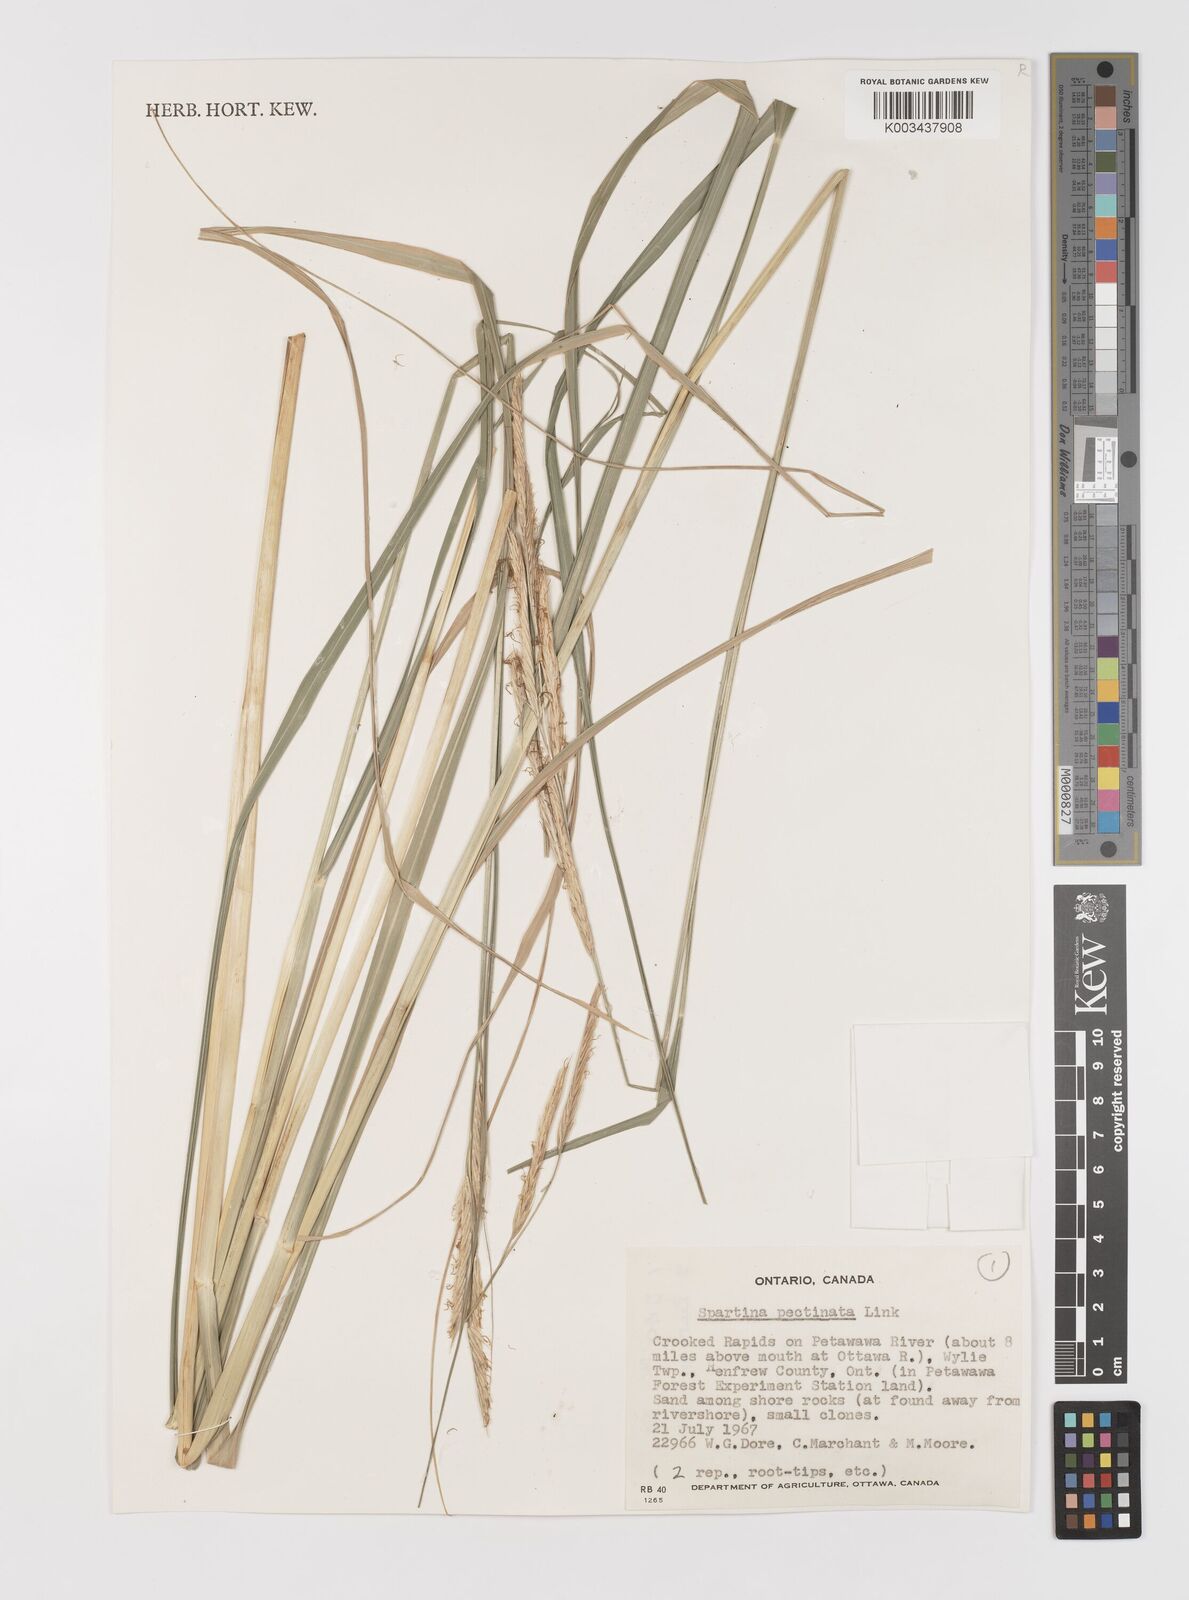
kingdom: Plantae
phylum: Tracheophyta
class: Liliopsida
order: Poales
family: Poaceae
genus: Sporobolus
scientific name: Sporobolus michauxianus
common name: Freshwater cordgrass
